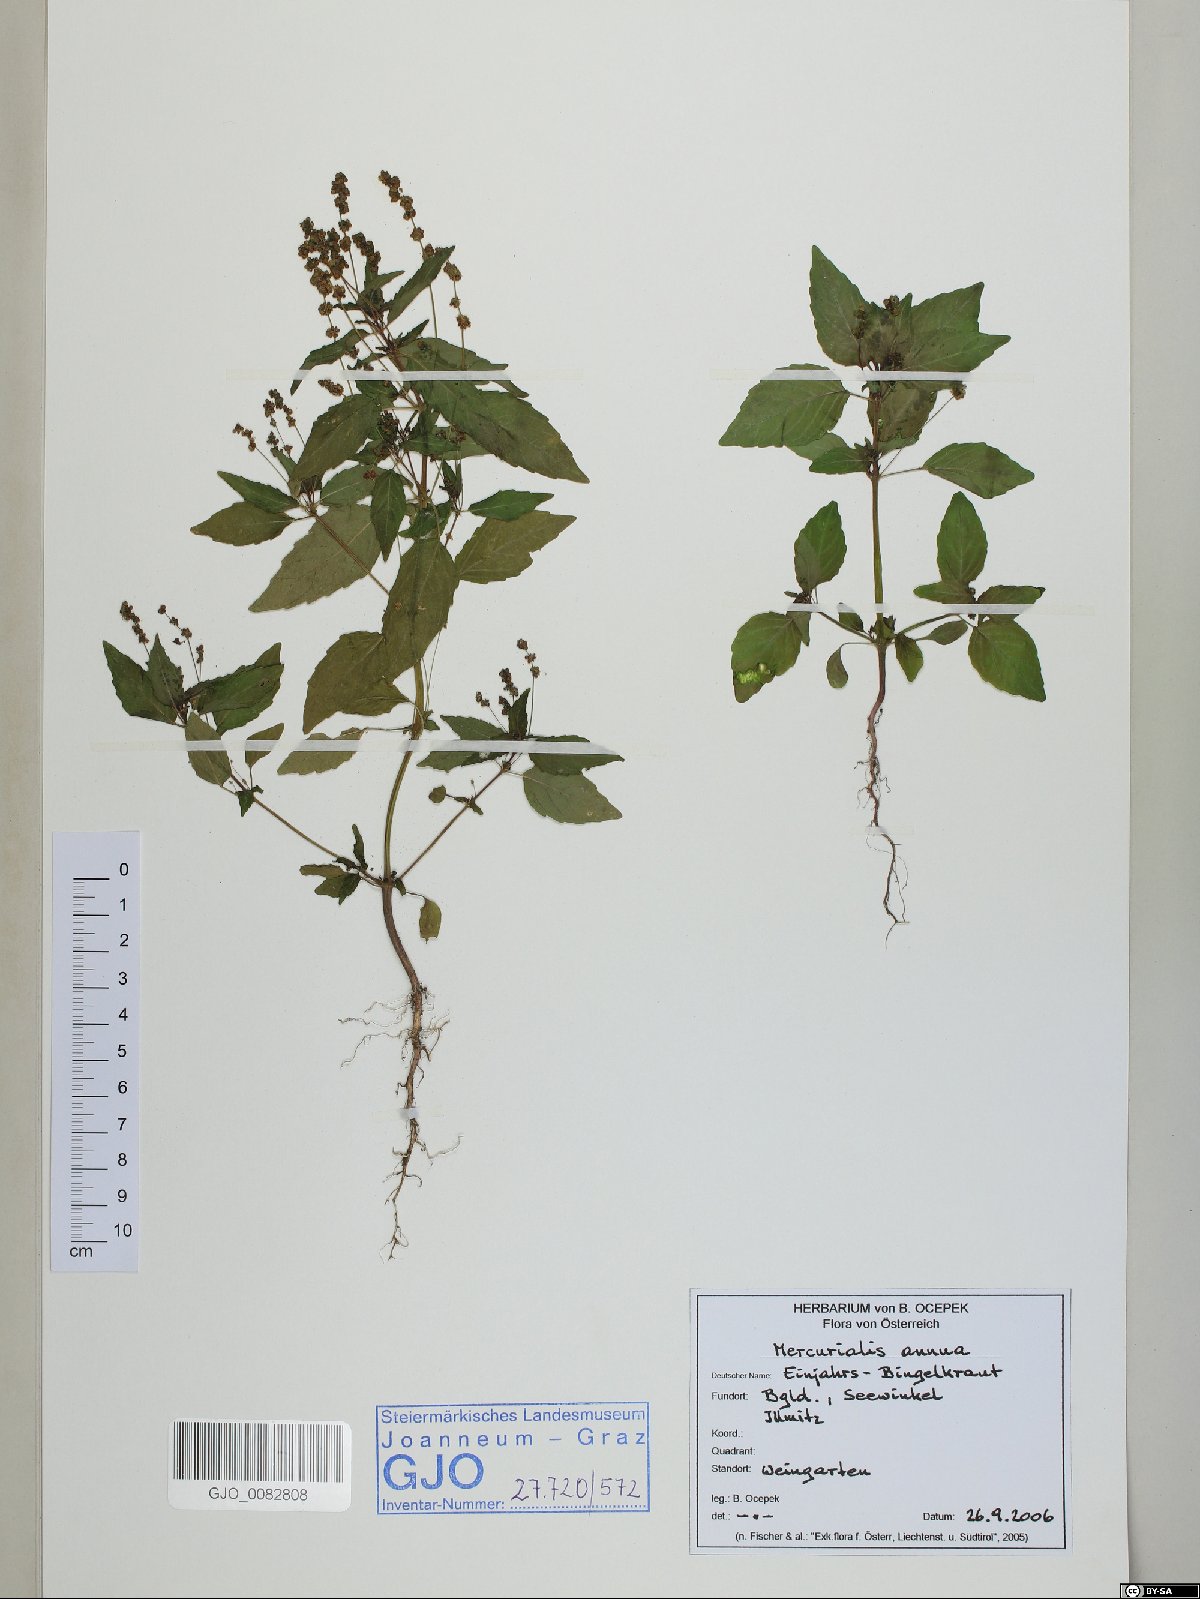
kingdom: Plantae
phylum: Tracheophyta
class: Magnoliopsida
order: Malpighiales
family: Euphorbiaceae
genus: Mercurialis
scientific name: Mercurialis annua
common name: Annual mercury
